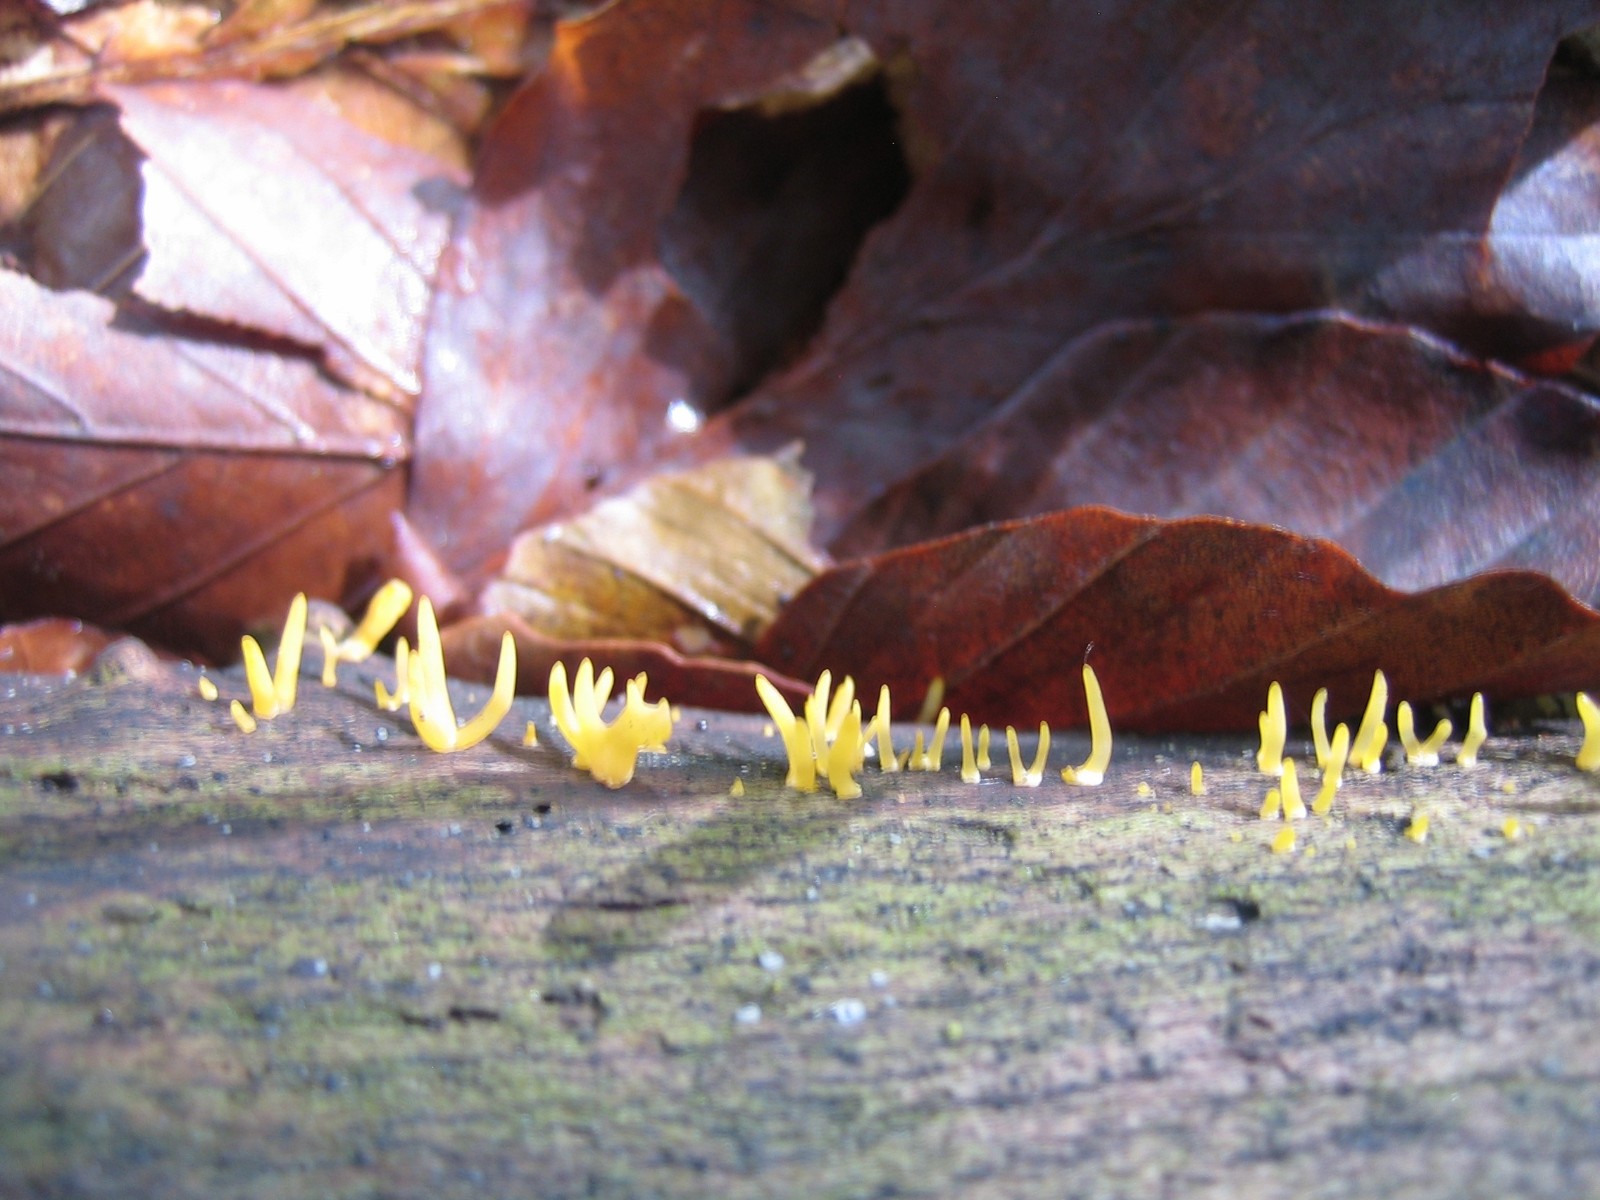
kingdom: Fungi
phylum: Basidiomycota
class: Dacrymycetes
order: Dacrymycetales
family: Dacrymycetaceae
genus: Calocera
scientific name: Calocera cornea
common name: liden guldgaffel
